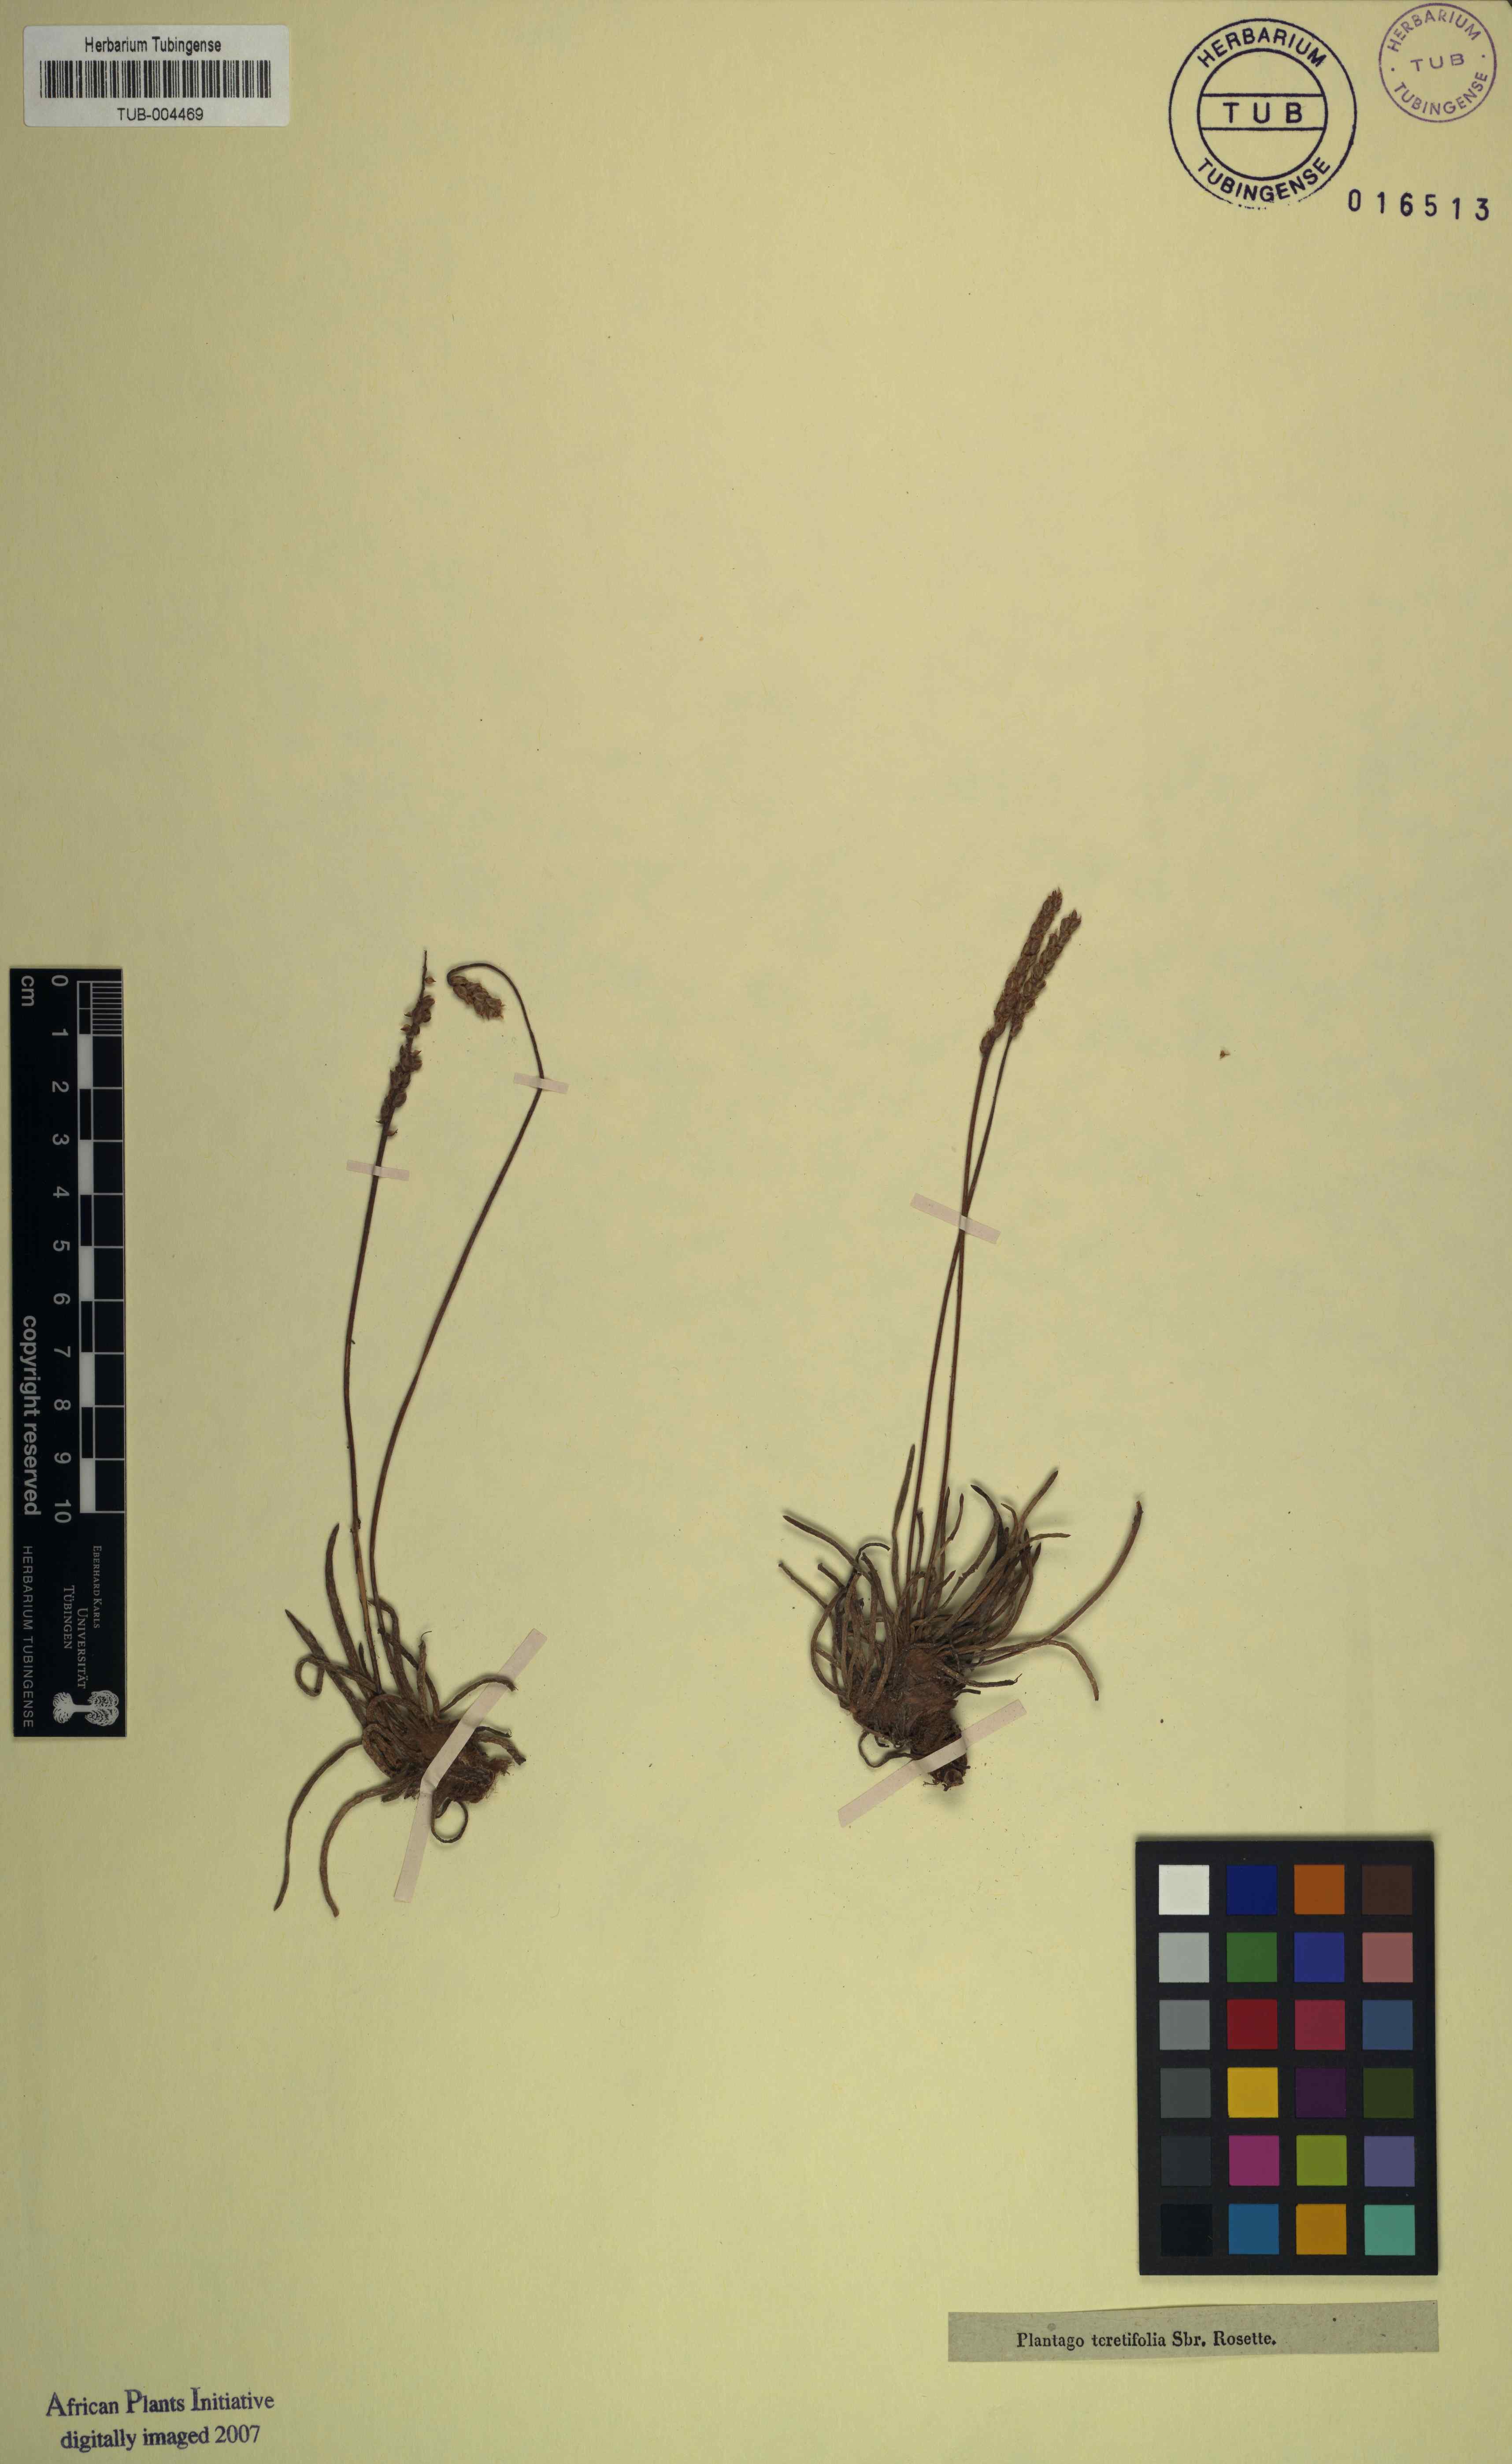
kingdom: Plantae
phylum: Tracheophyta
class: Magnoliopsida
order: Lamiales
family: Plantaginaceae
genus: Plantago
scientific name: Plantago maritima
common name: Sea plantain
